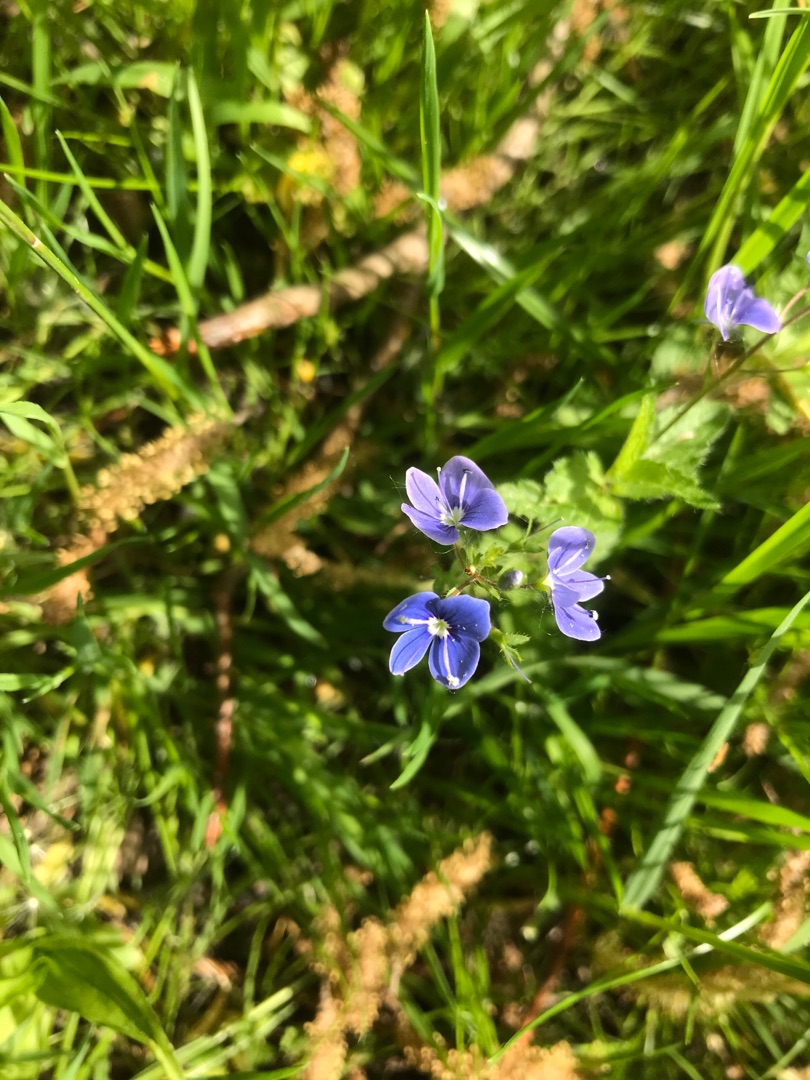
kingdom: Plantae
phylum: Tracheophyta
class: Magnoliopsida
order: Lamiales
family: Plantaginaceae
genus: Veronica
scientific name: Veronica chamaedrys
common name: Tveskægget ærenpris
